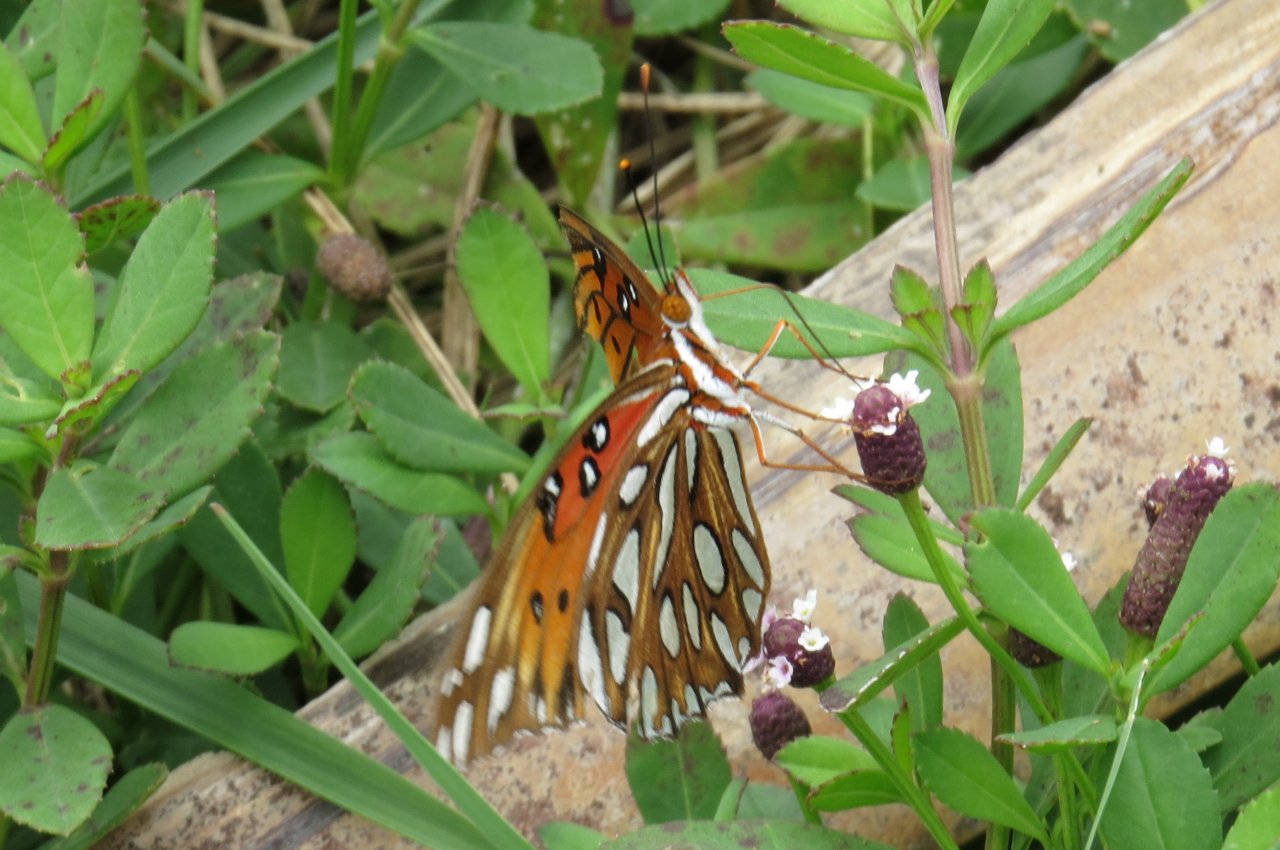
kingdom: Animalia
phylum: Arthropoda
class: Insecta
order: Lepidoptera
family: Nymphalidae
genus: Dione
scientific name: Dione vanillae
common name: Gulf Fritillary
